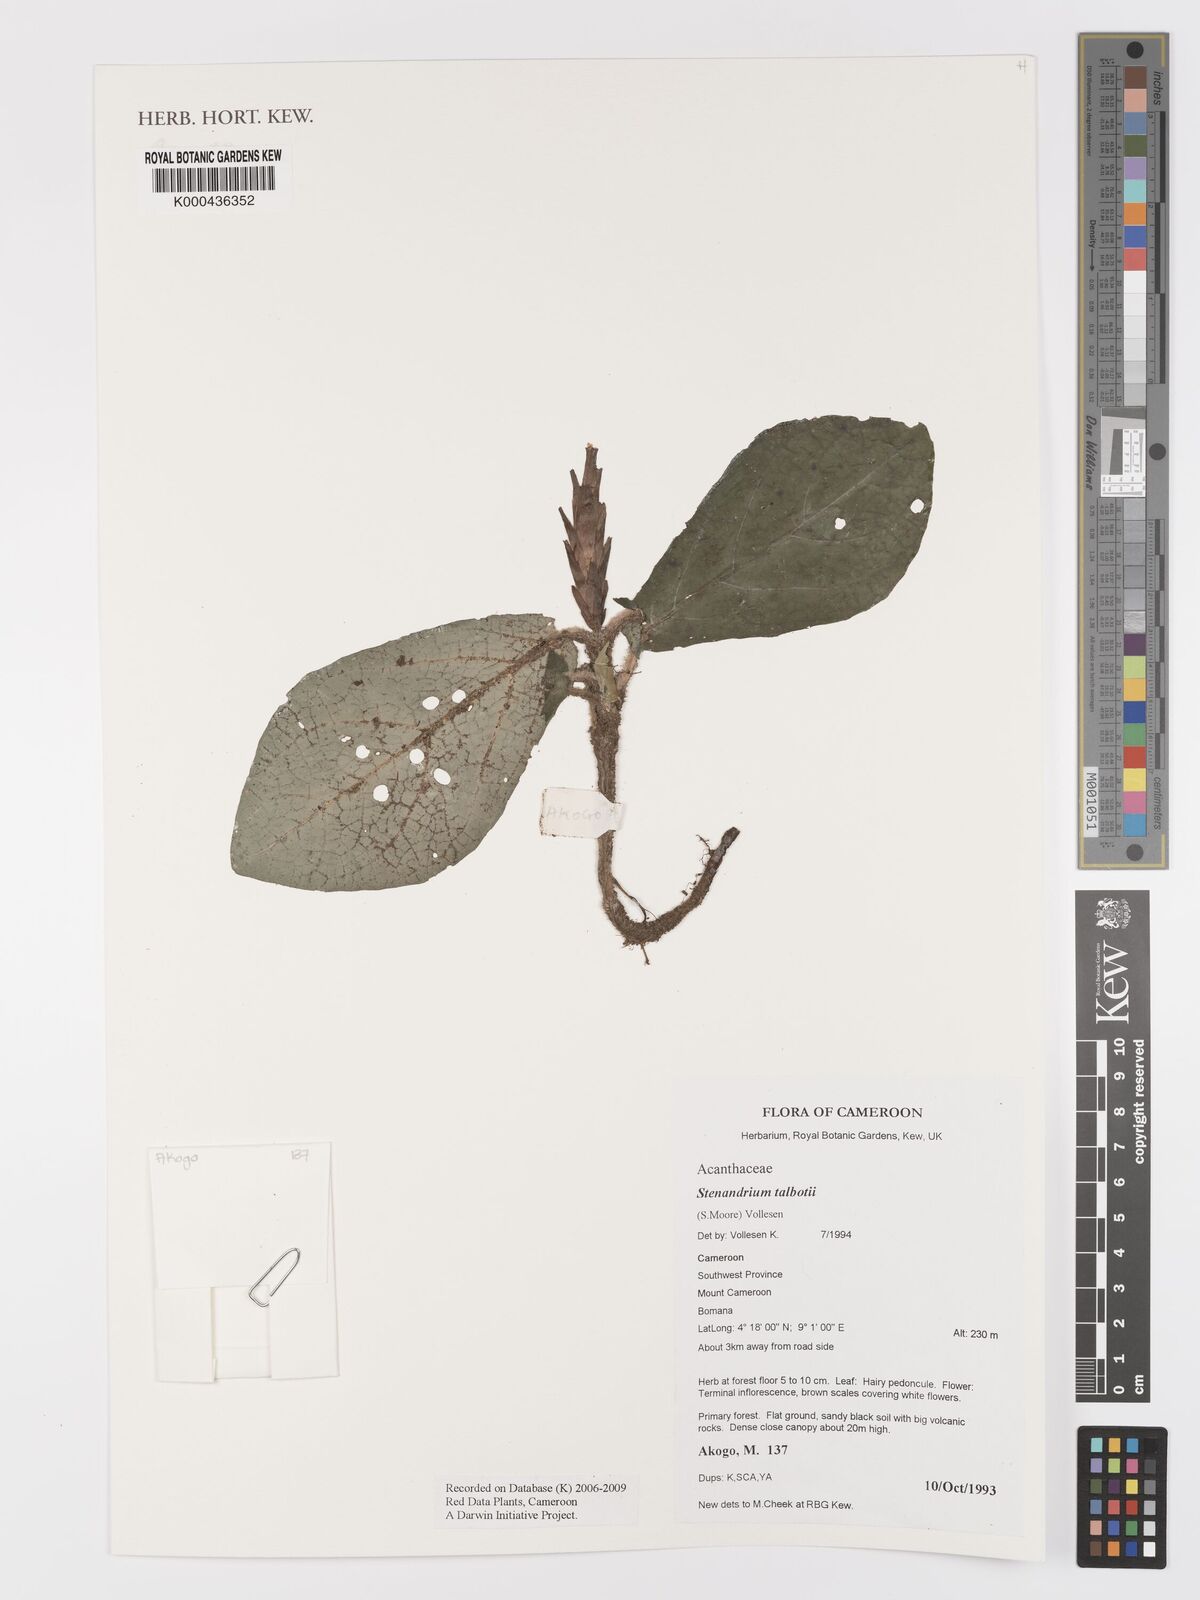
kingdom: Plantae
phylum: Tracheophyta
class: Magnoliopsida
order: Lamiales
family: Acanthaceae
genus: Stenandriopsis
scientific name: Stenandriopsis talbotii
